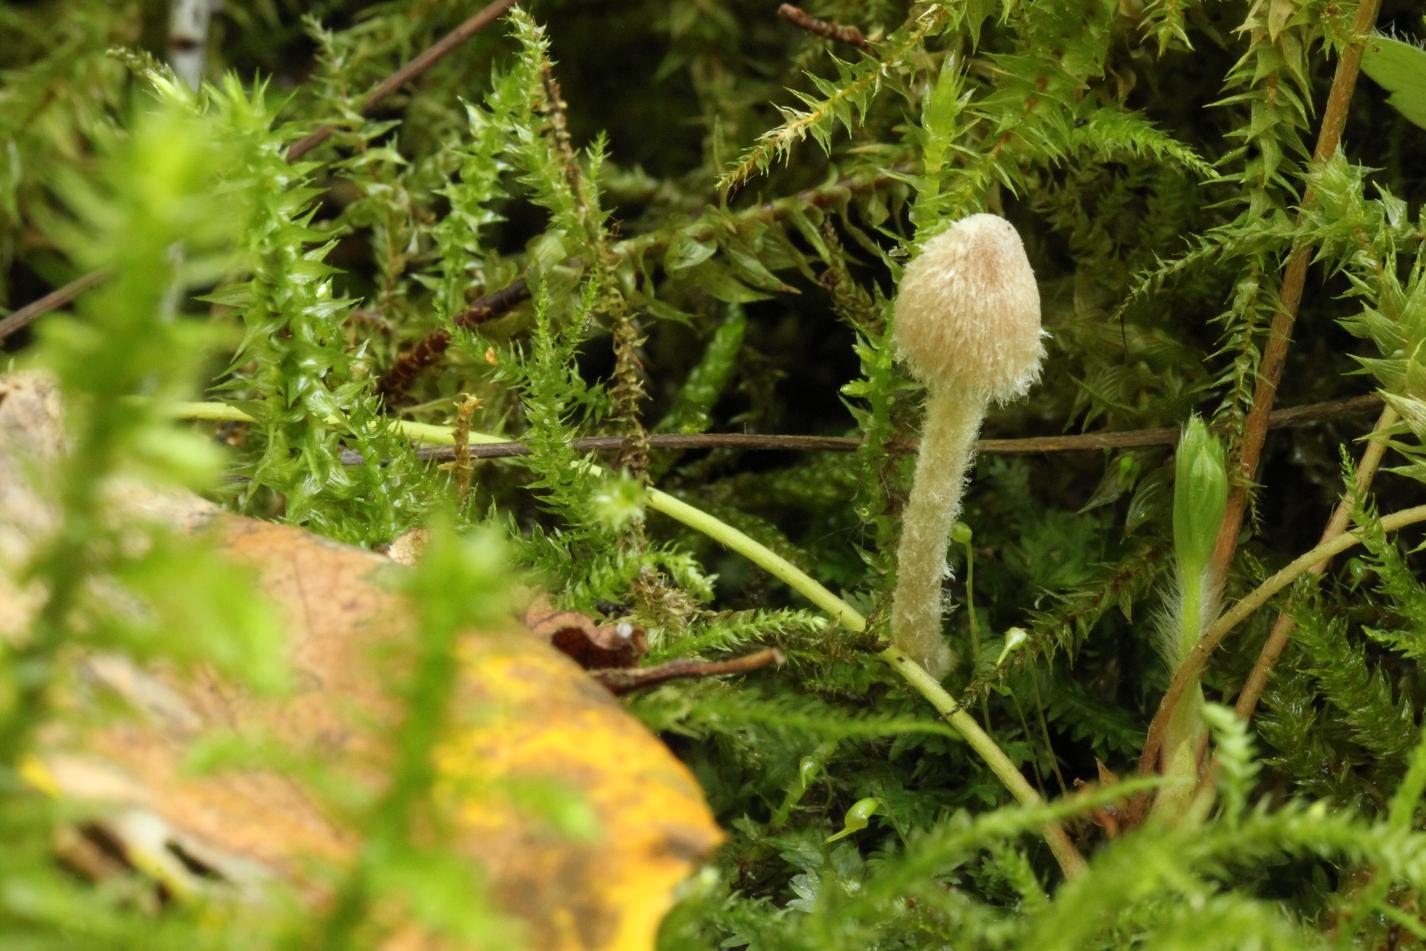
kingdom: Fungi
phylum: Basidiomycota
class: Agaricomycetes
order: Agaricales
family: Psathyrellaceae
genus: Coprinopsis
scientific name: Coprinopsis canoceps
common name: gråhåret blækhat
